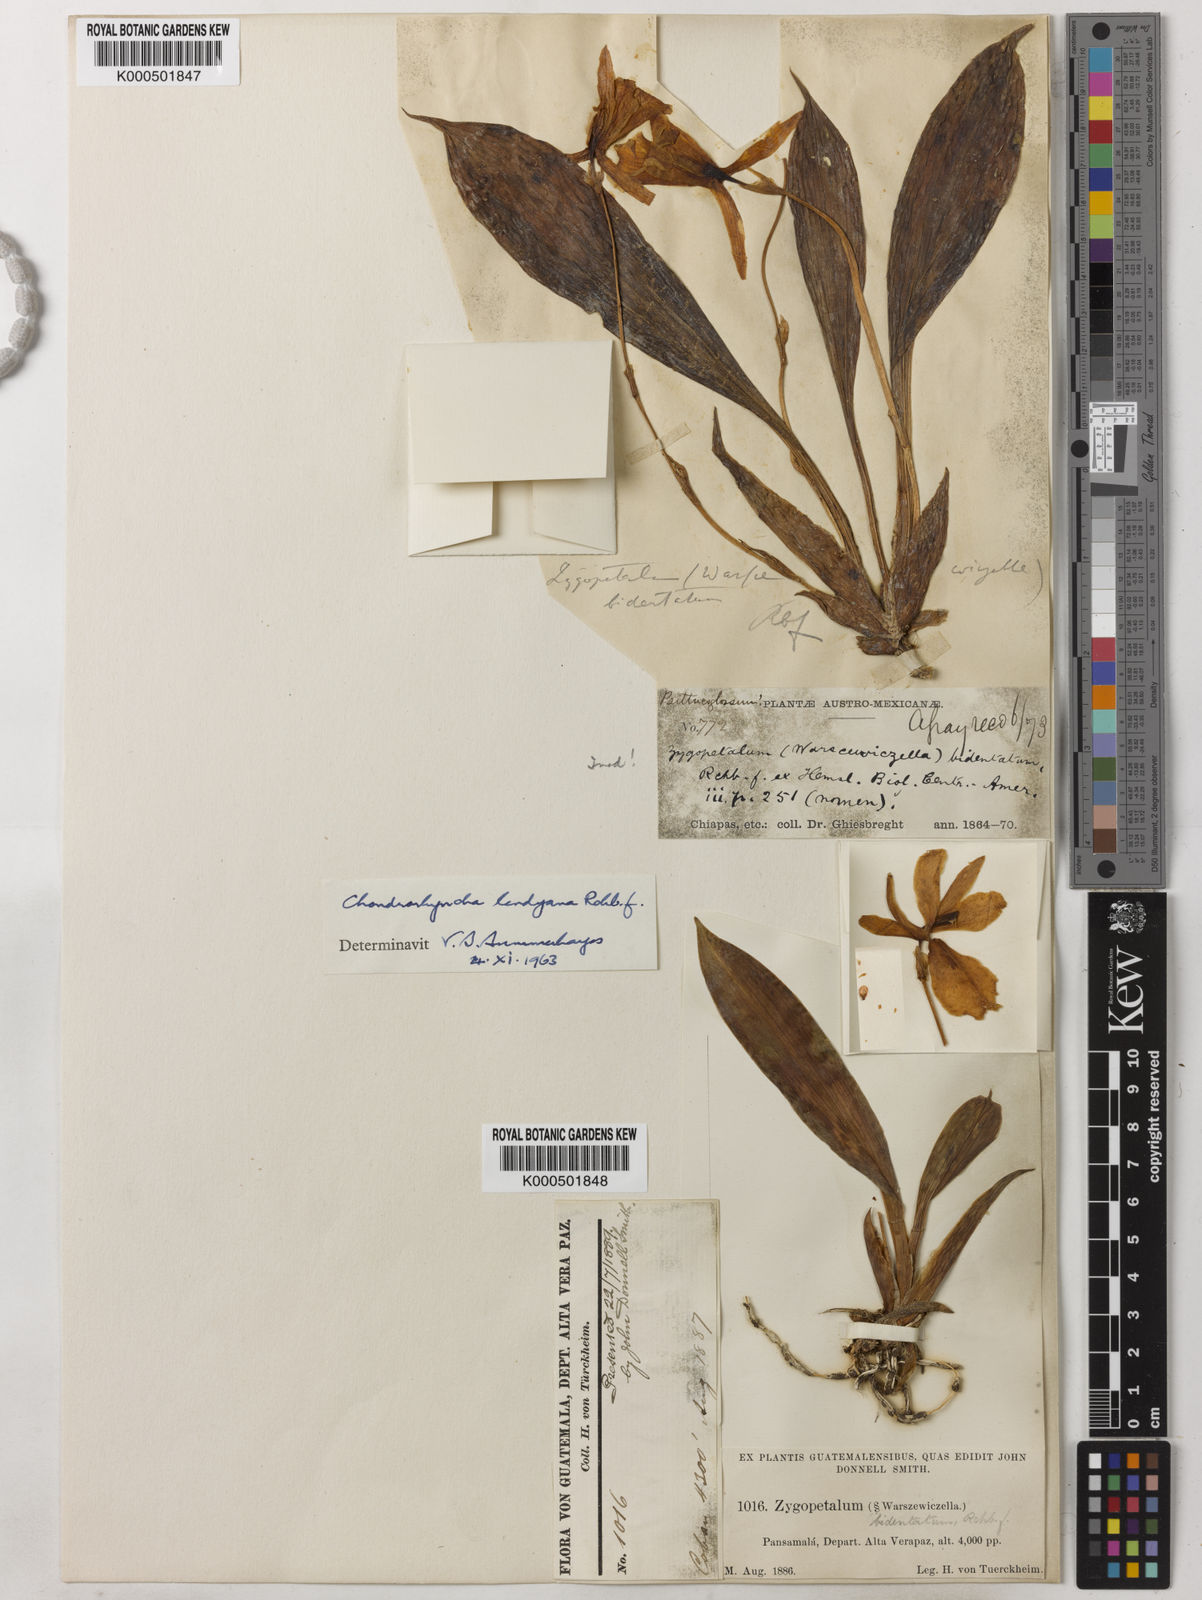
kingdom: Plantae
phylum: Tracheophyta
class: Liliopsida
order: Asparagales
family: Orchidaceae
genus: Stenotyla
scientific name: Stenotyla lendyana
